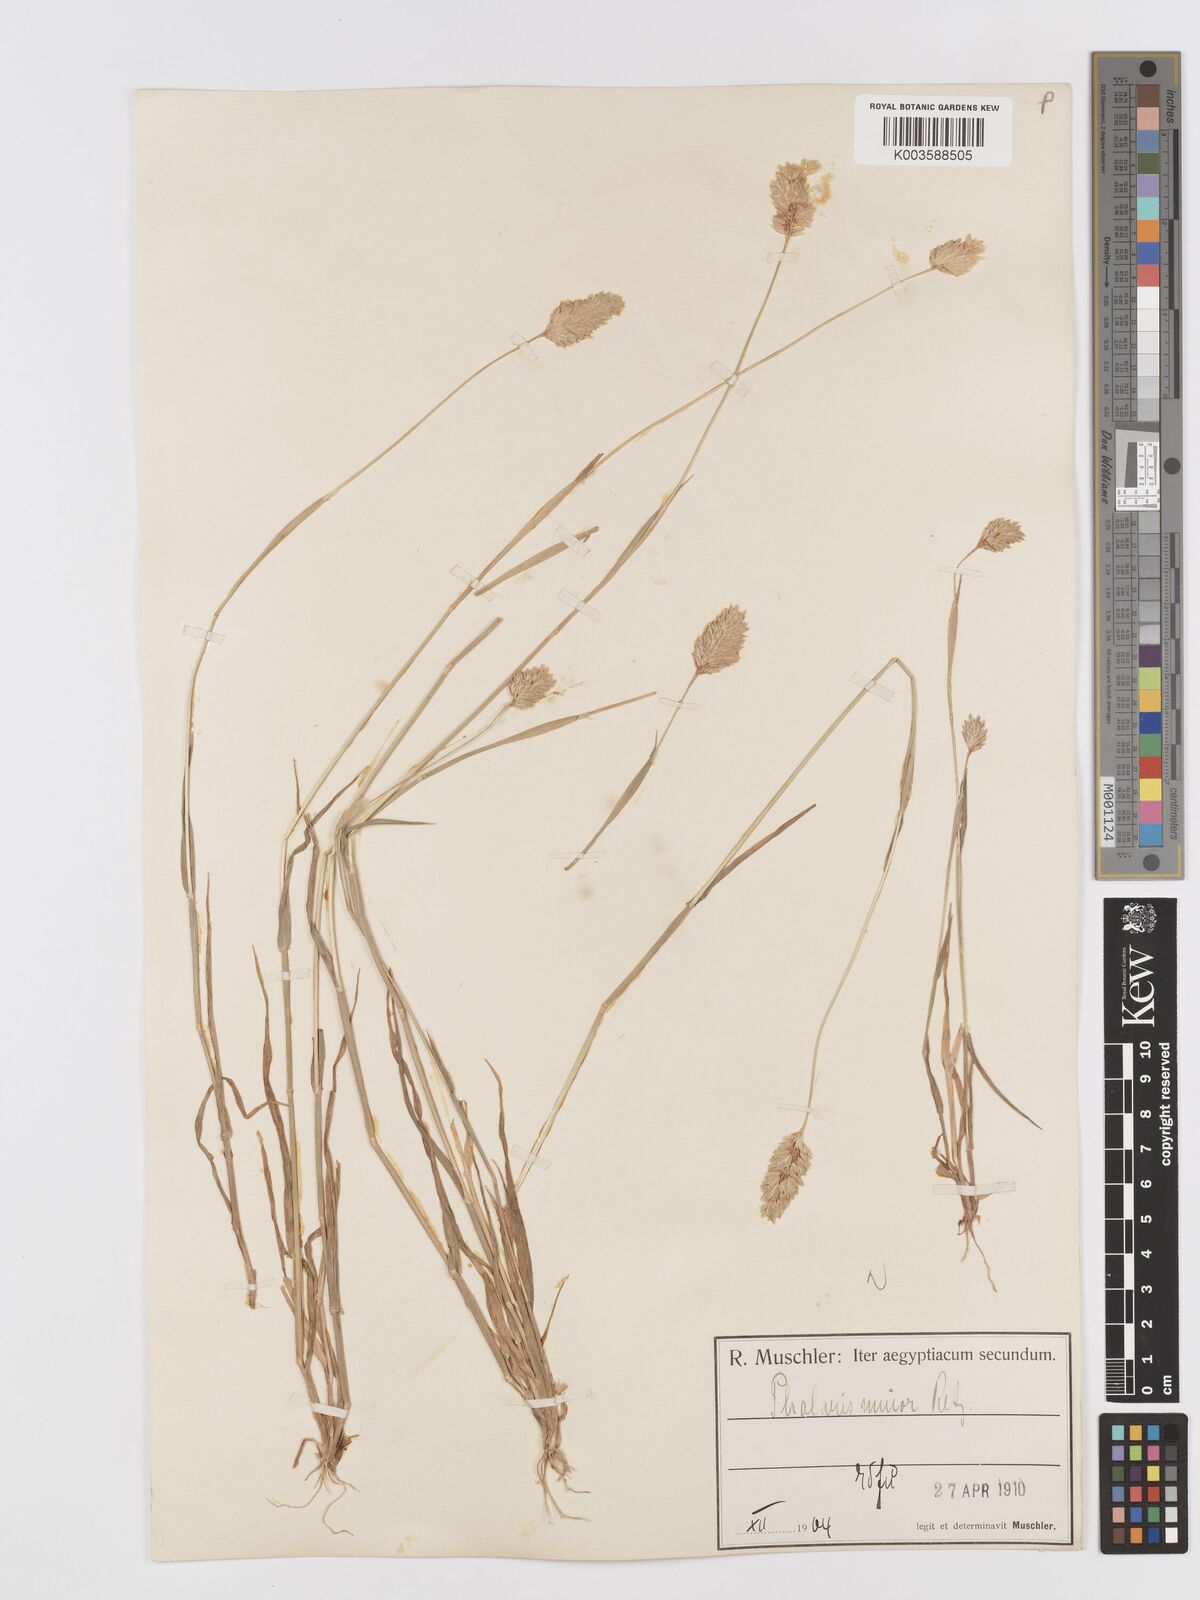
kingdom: Plantae
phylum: Tracheophyta
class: Liliopsida
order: Poales
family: Poaceae
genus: Phalaris
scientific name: Phalaris minor
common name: Littleseed canarygrass
